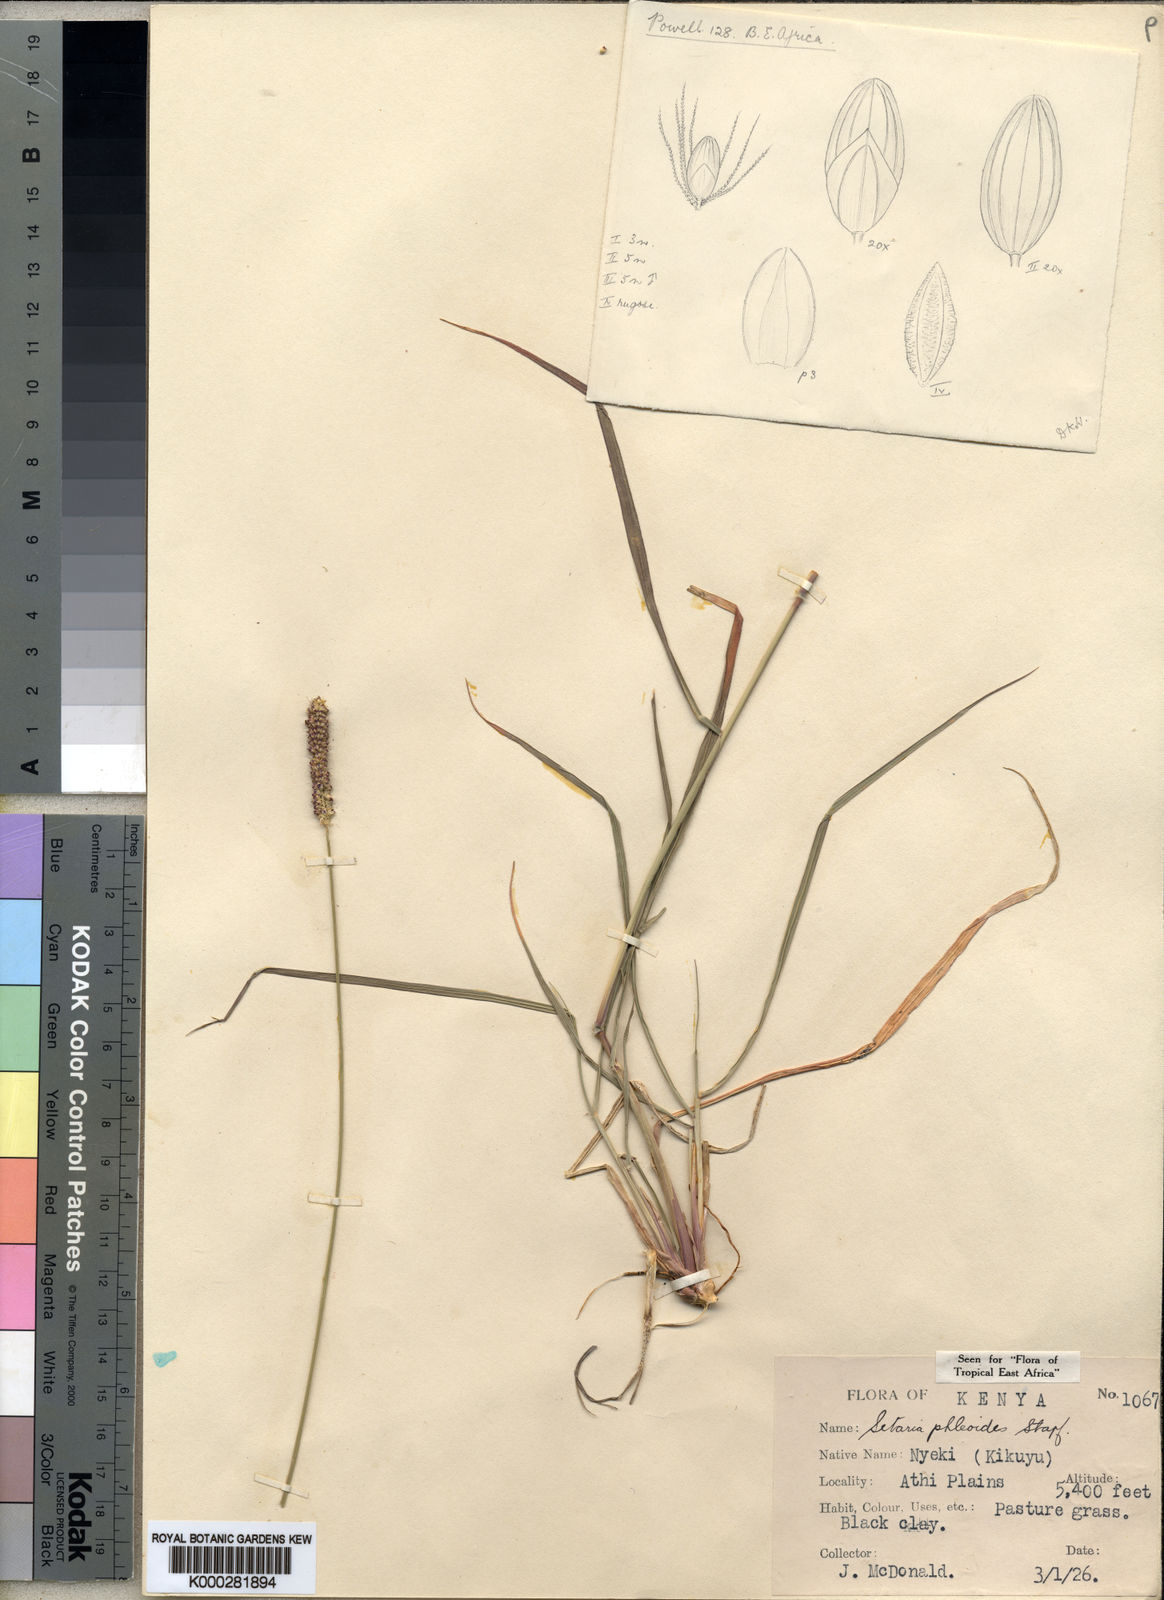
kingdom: Plantae
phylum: Tracheophyta
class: Liliopsida
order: Poales
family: Poaceae
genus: Setaria
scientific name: Setaria incrassata
